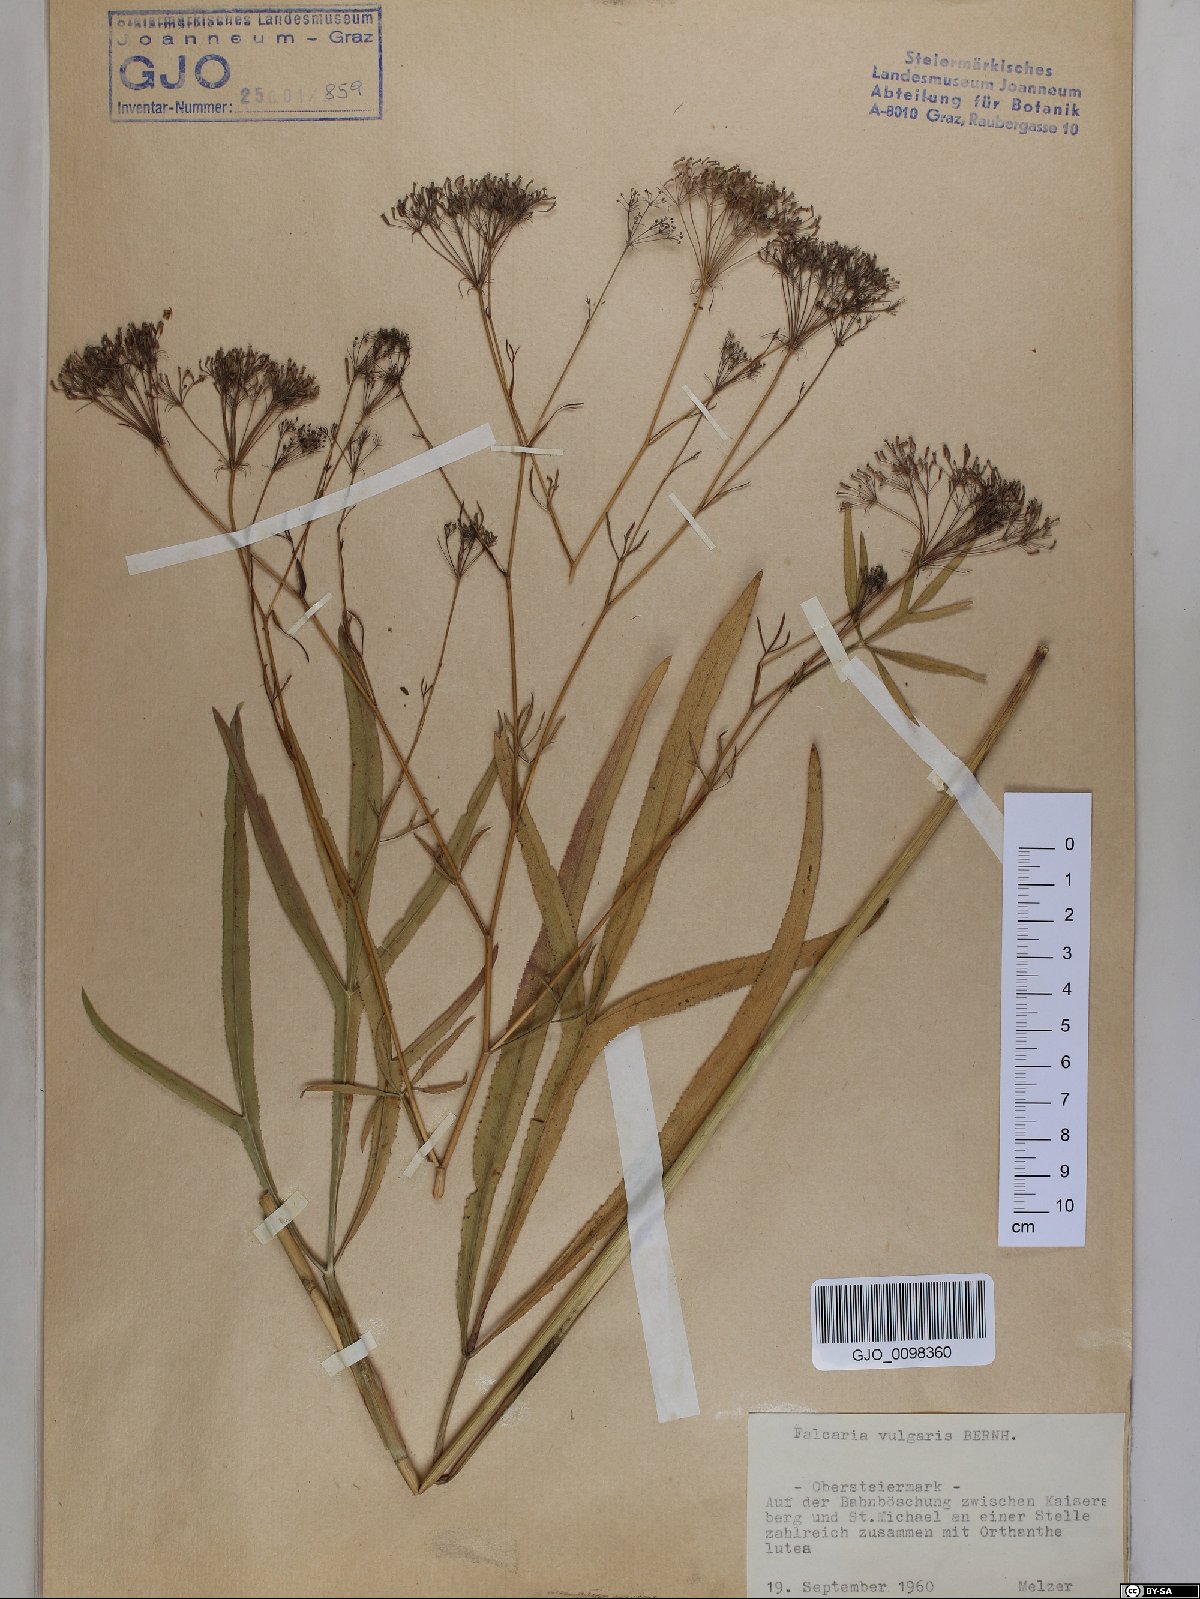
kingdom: Plantae
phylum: Tracheophyta
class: Magnoliopsida
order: Apiales
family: Apiaceae
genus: Falcaria
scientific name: Falcaria vulgaris
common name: Longleaf
